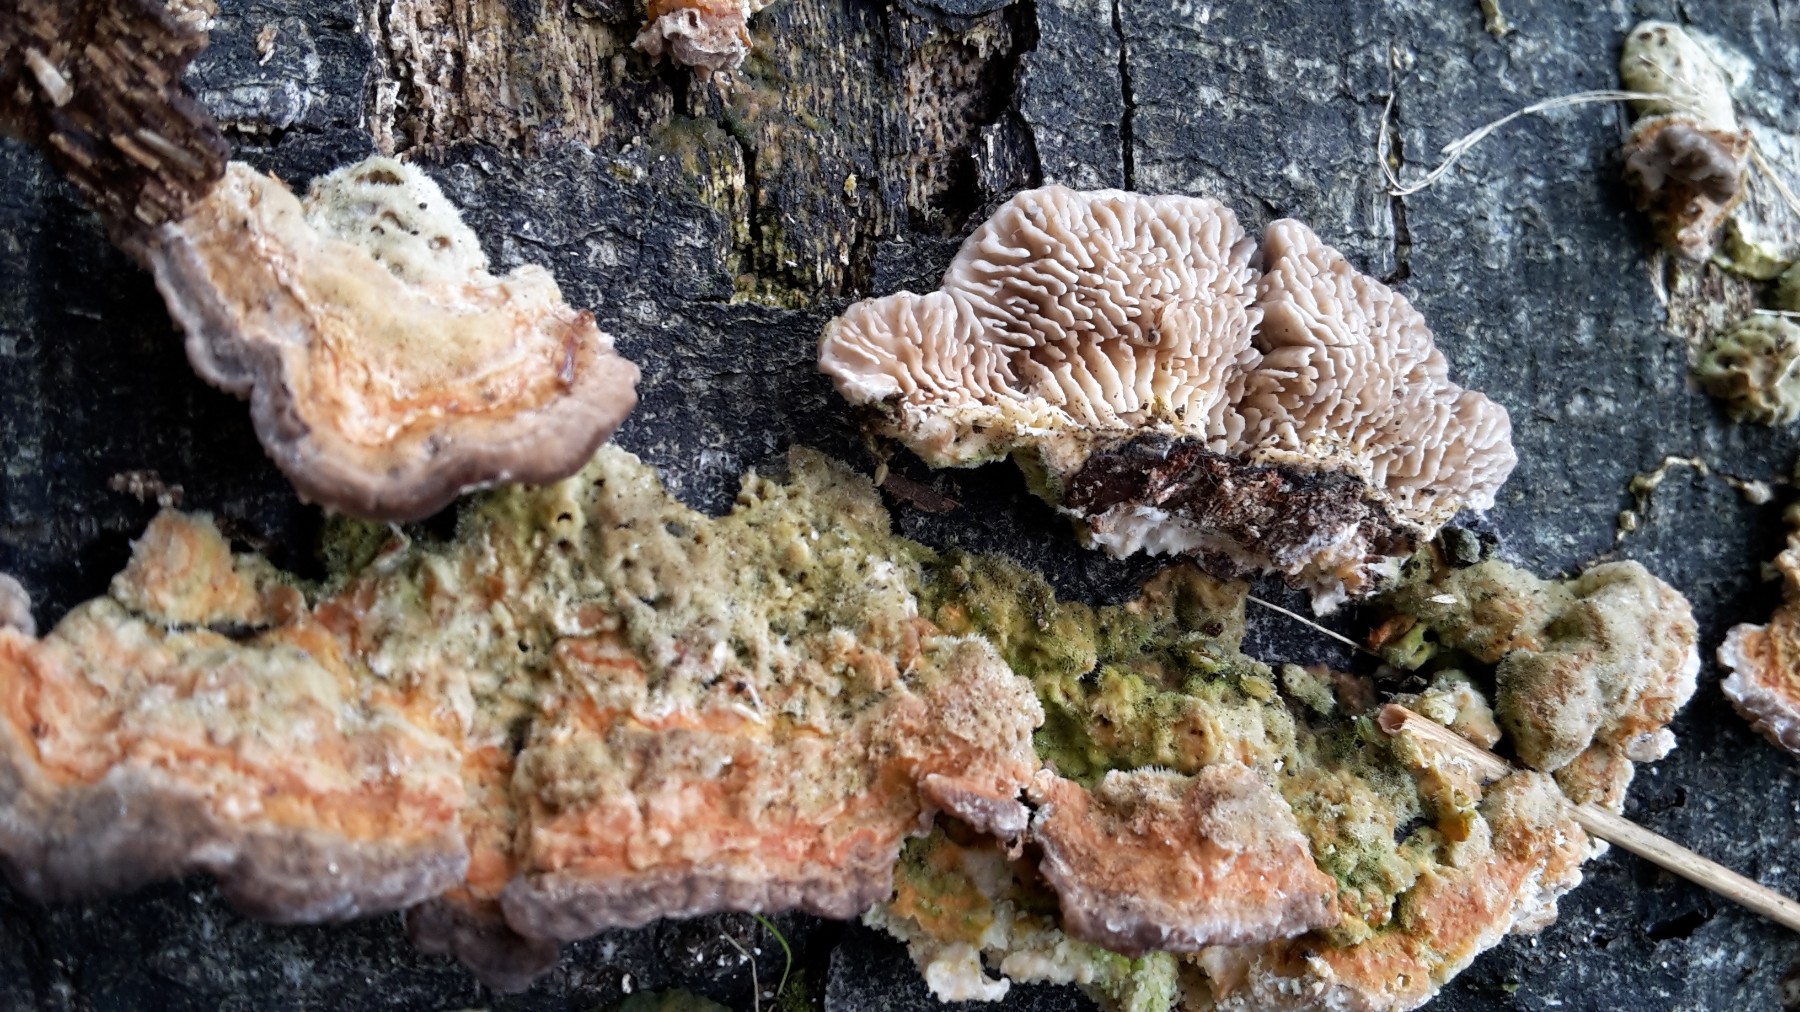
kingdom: Fungi
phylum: Basidiomycota
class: Agaricomycetes
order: Polyporales
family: Polyporaceae
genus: Lenzites
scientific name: Lenzites betulinus
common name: birke-læderporesvamp
